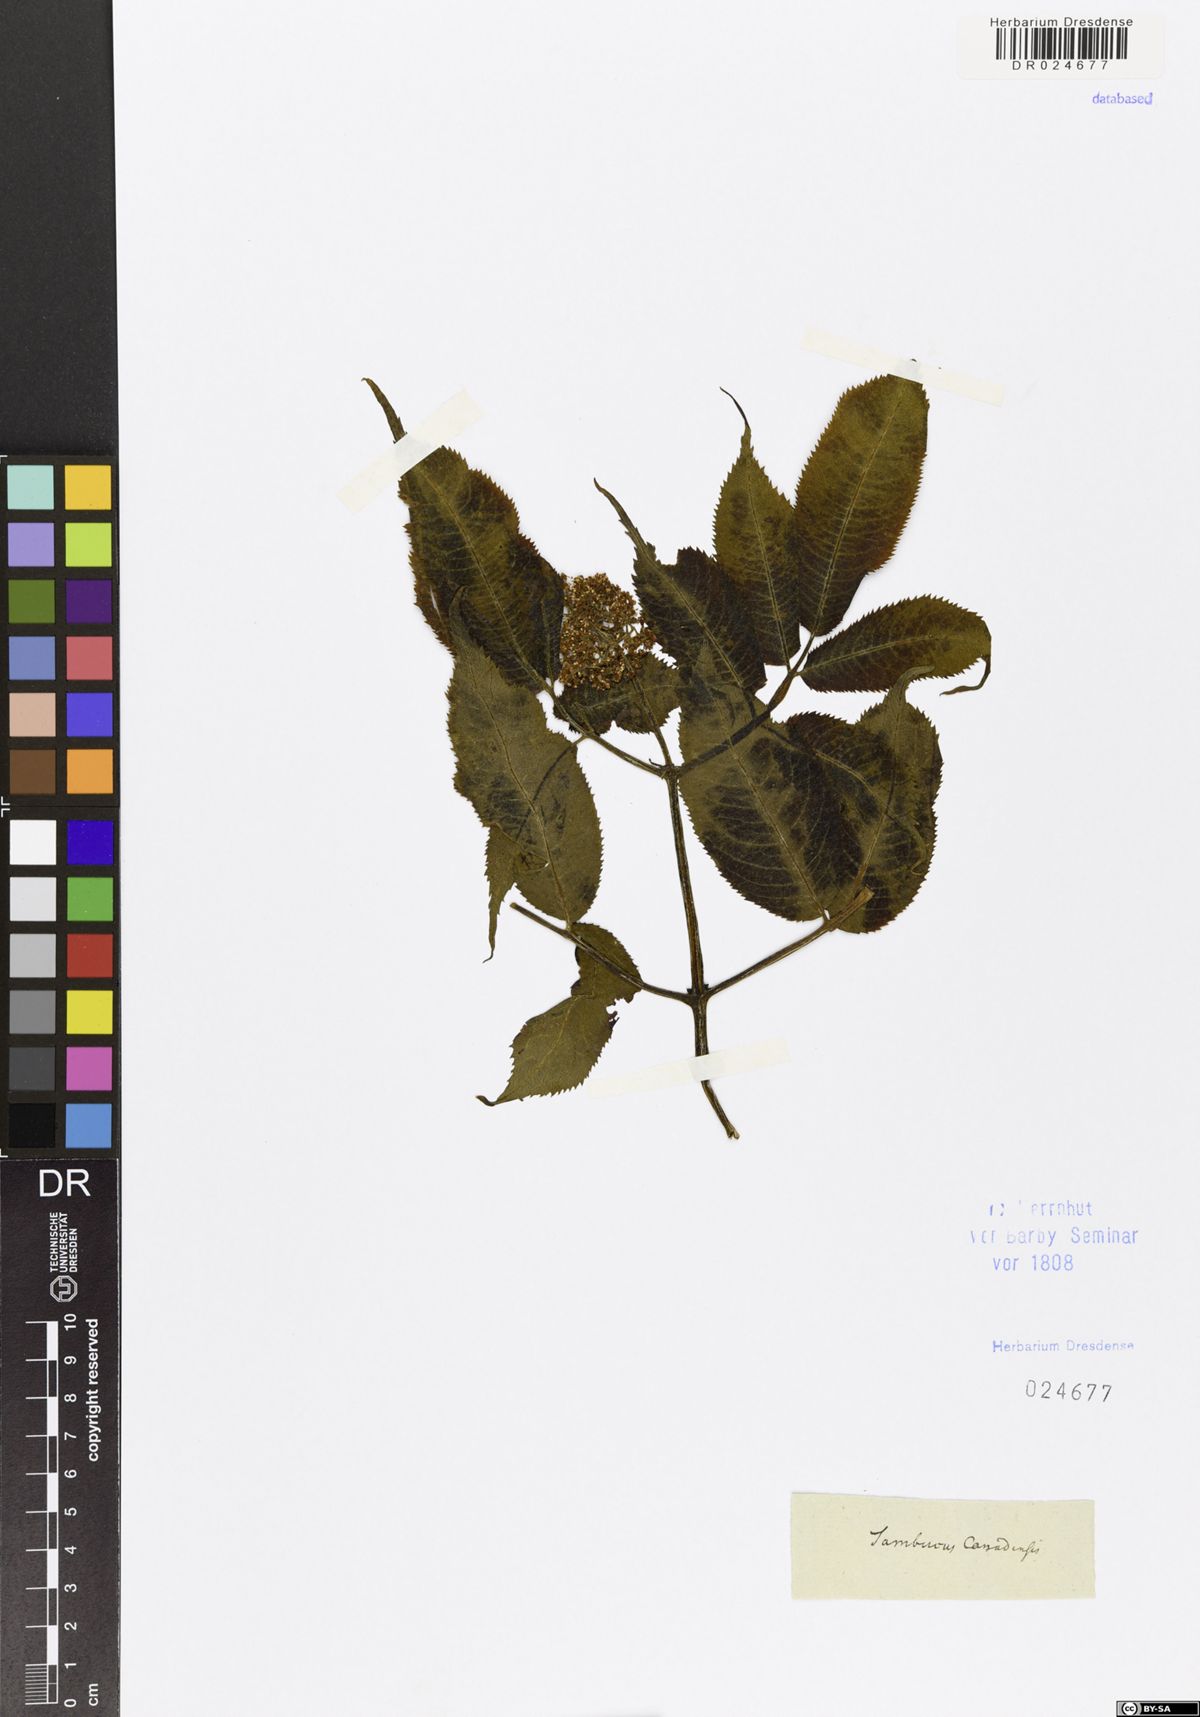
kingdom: Plantae
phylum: Tracheophyta
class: Magnoliopsida
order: Dipsacales
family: Viburnaceae
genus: Sambucus
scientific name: Sambucus canadensis
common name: American elder
